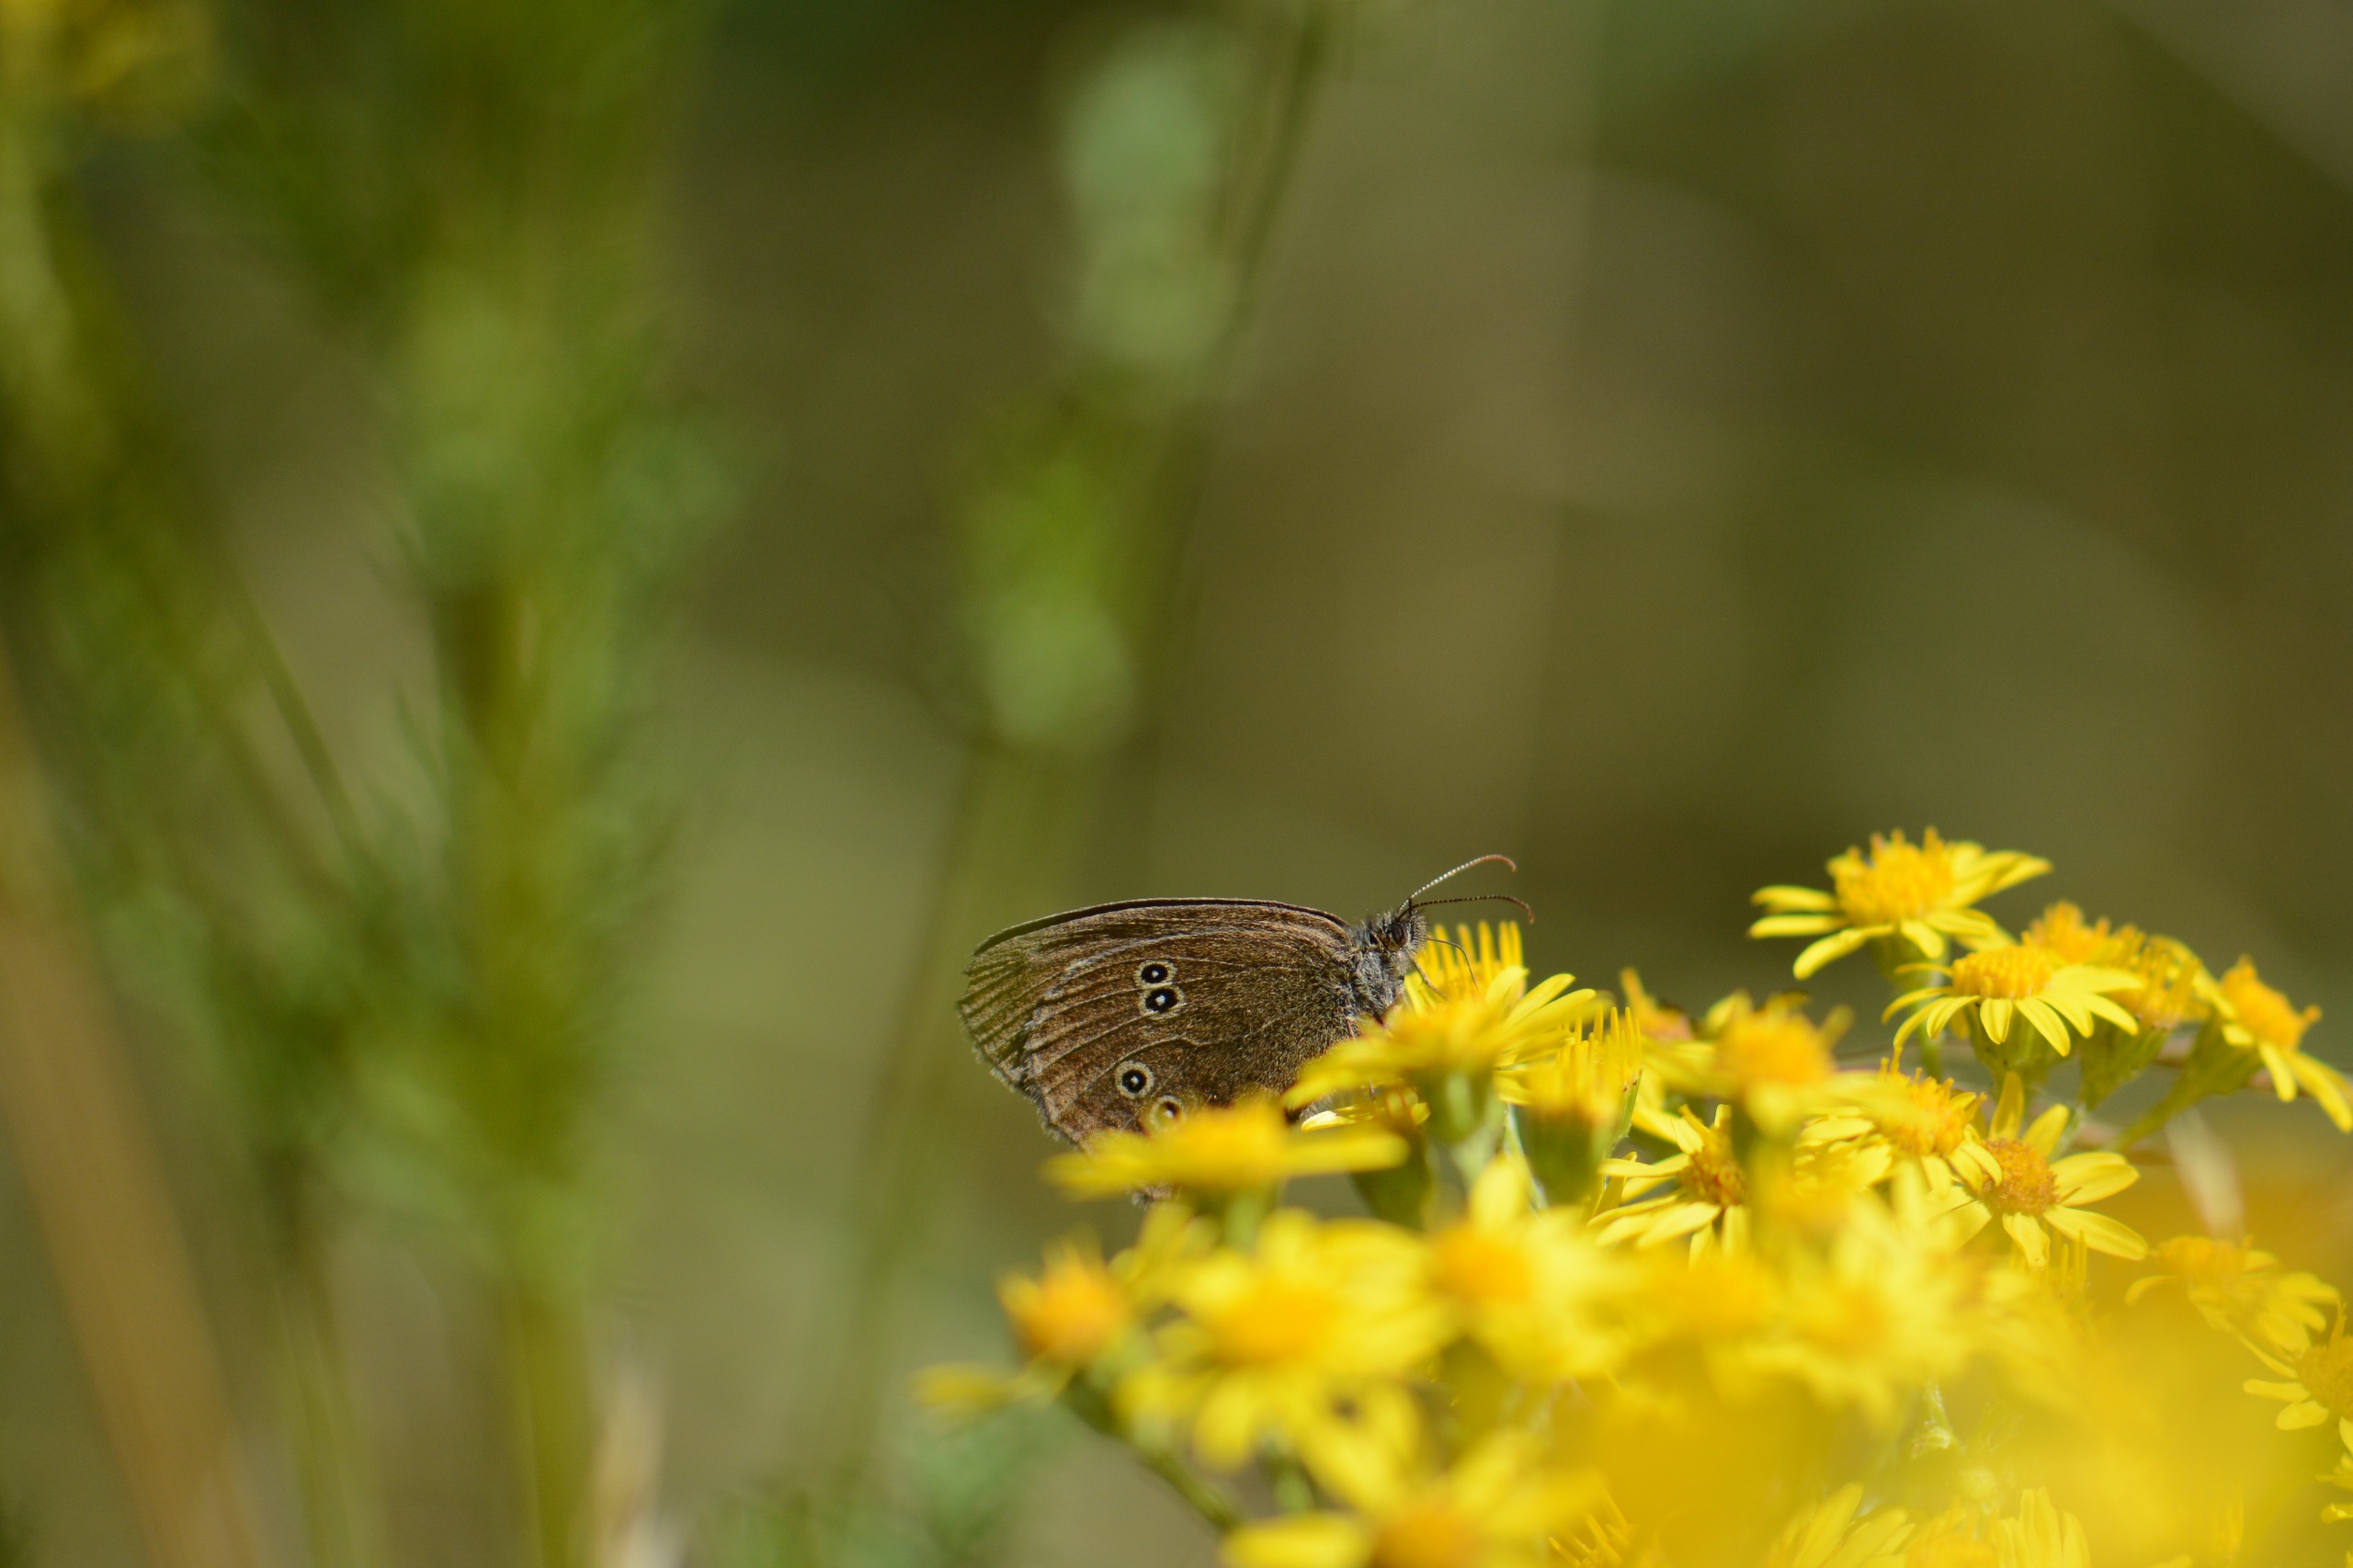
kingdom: Animalia
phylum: Arthropoda
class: Insecta
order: Lepidoptera
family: Nymphalidae
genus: Aphantopus
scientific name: Aphantopus hyperantus
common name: Engrandøje
